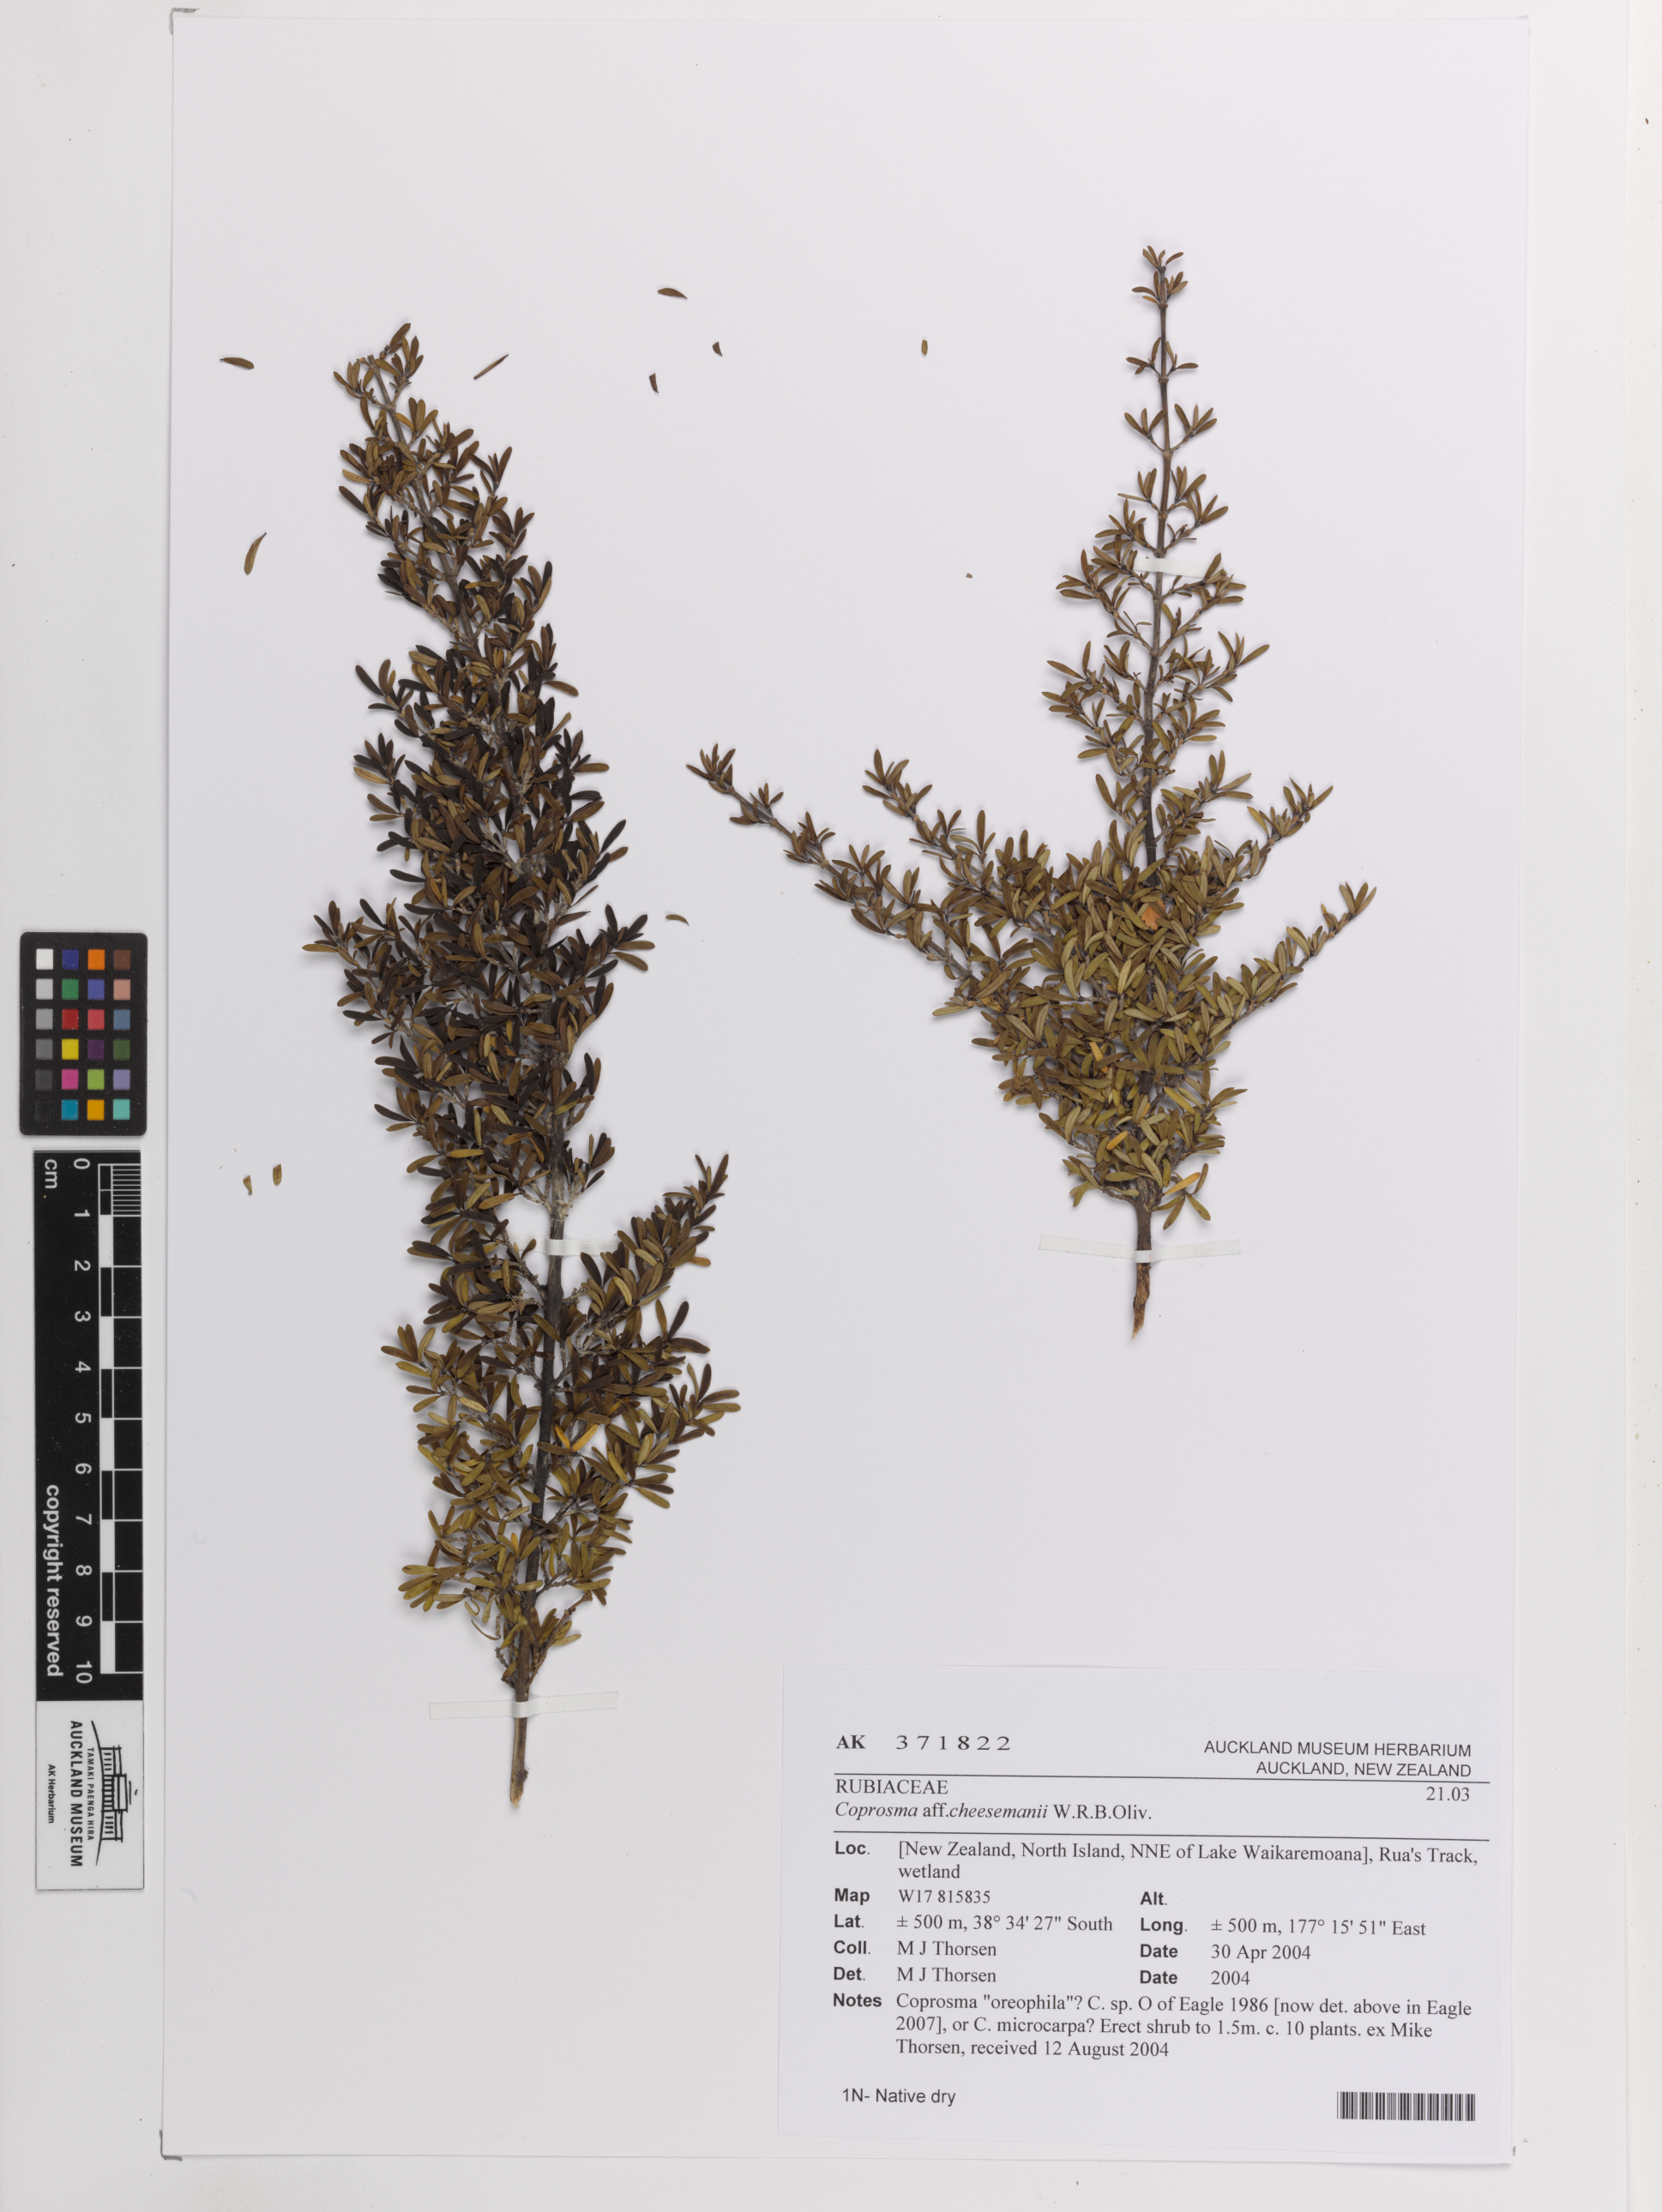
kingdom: Plantae
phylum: Tracheophyta
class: Magnoliopsida
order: Gentianales
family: Rubiaceae
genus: Coprosma
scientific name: Coprosma
